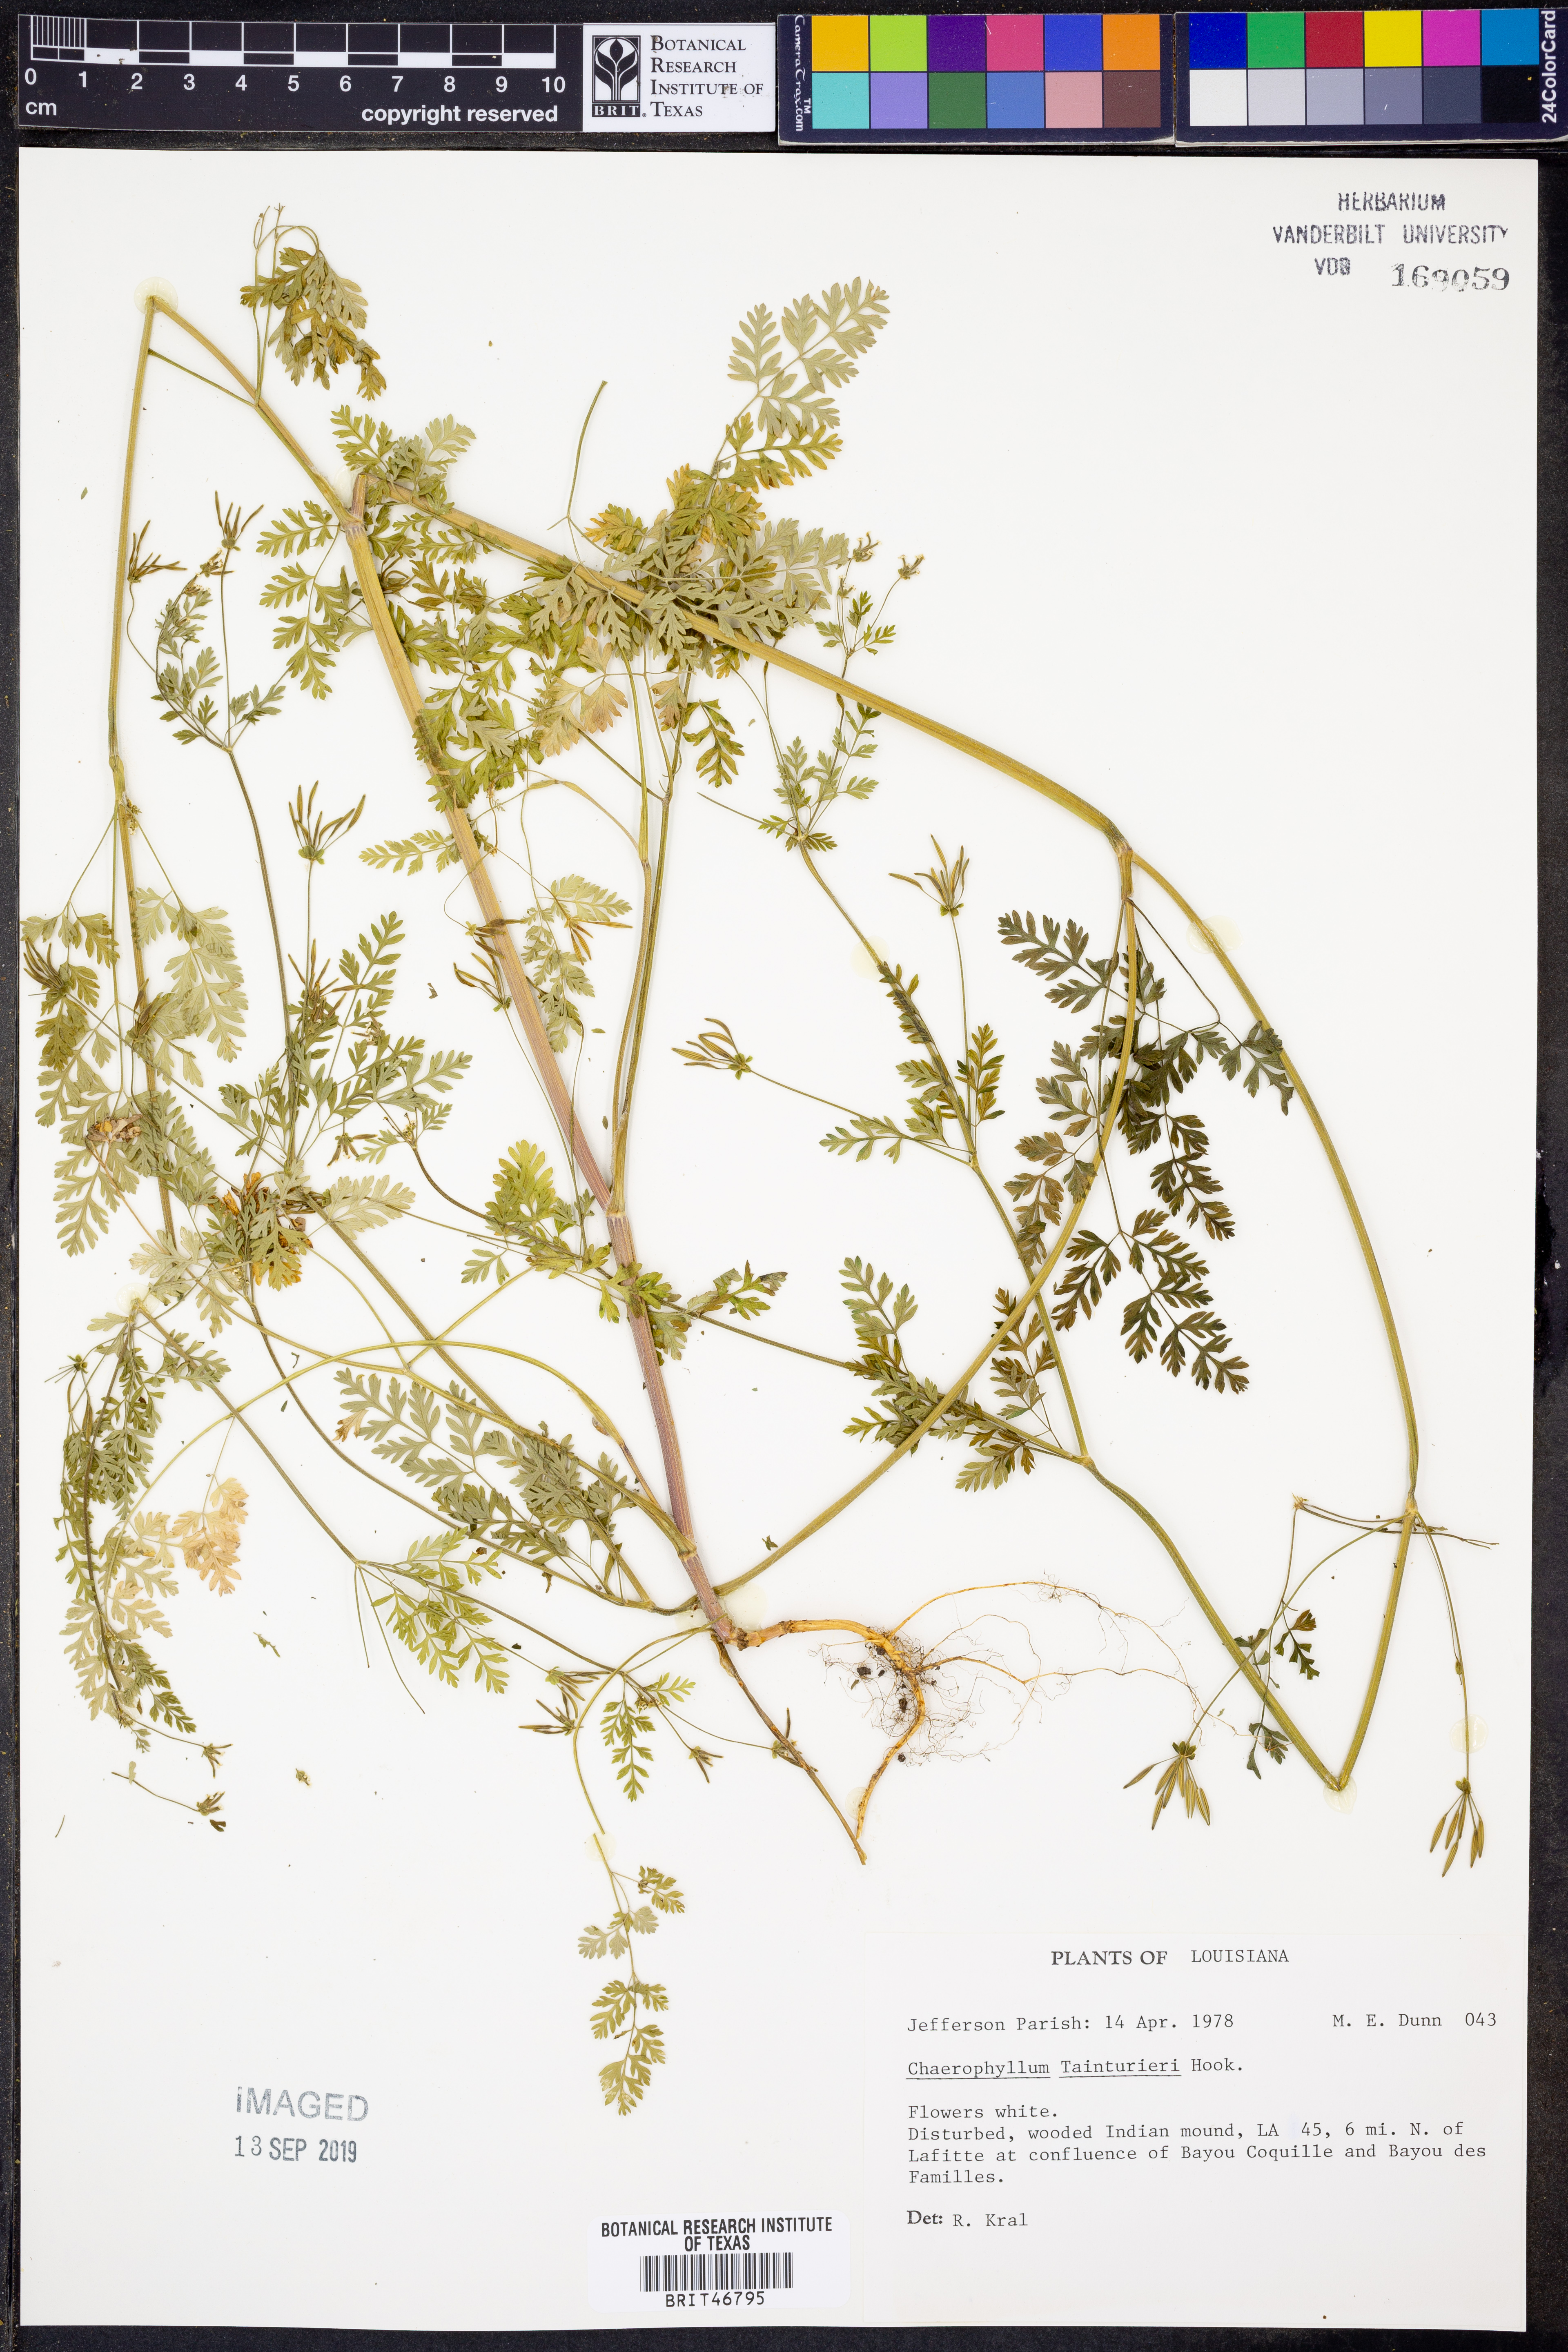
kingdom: Plantae
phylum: Tracheophyta
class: Magnoliopsida
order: Apiales
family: Apiaceae
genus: Chaerophyllum
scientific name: Chaerophyllum tainturieri
